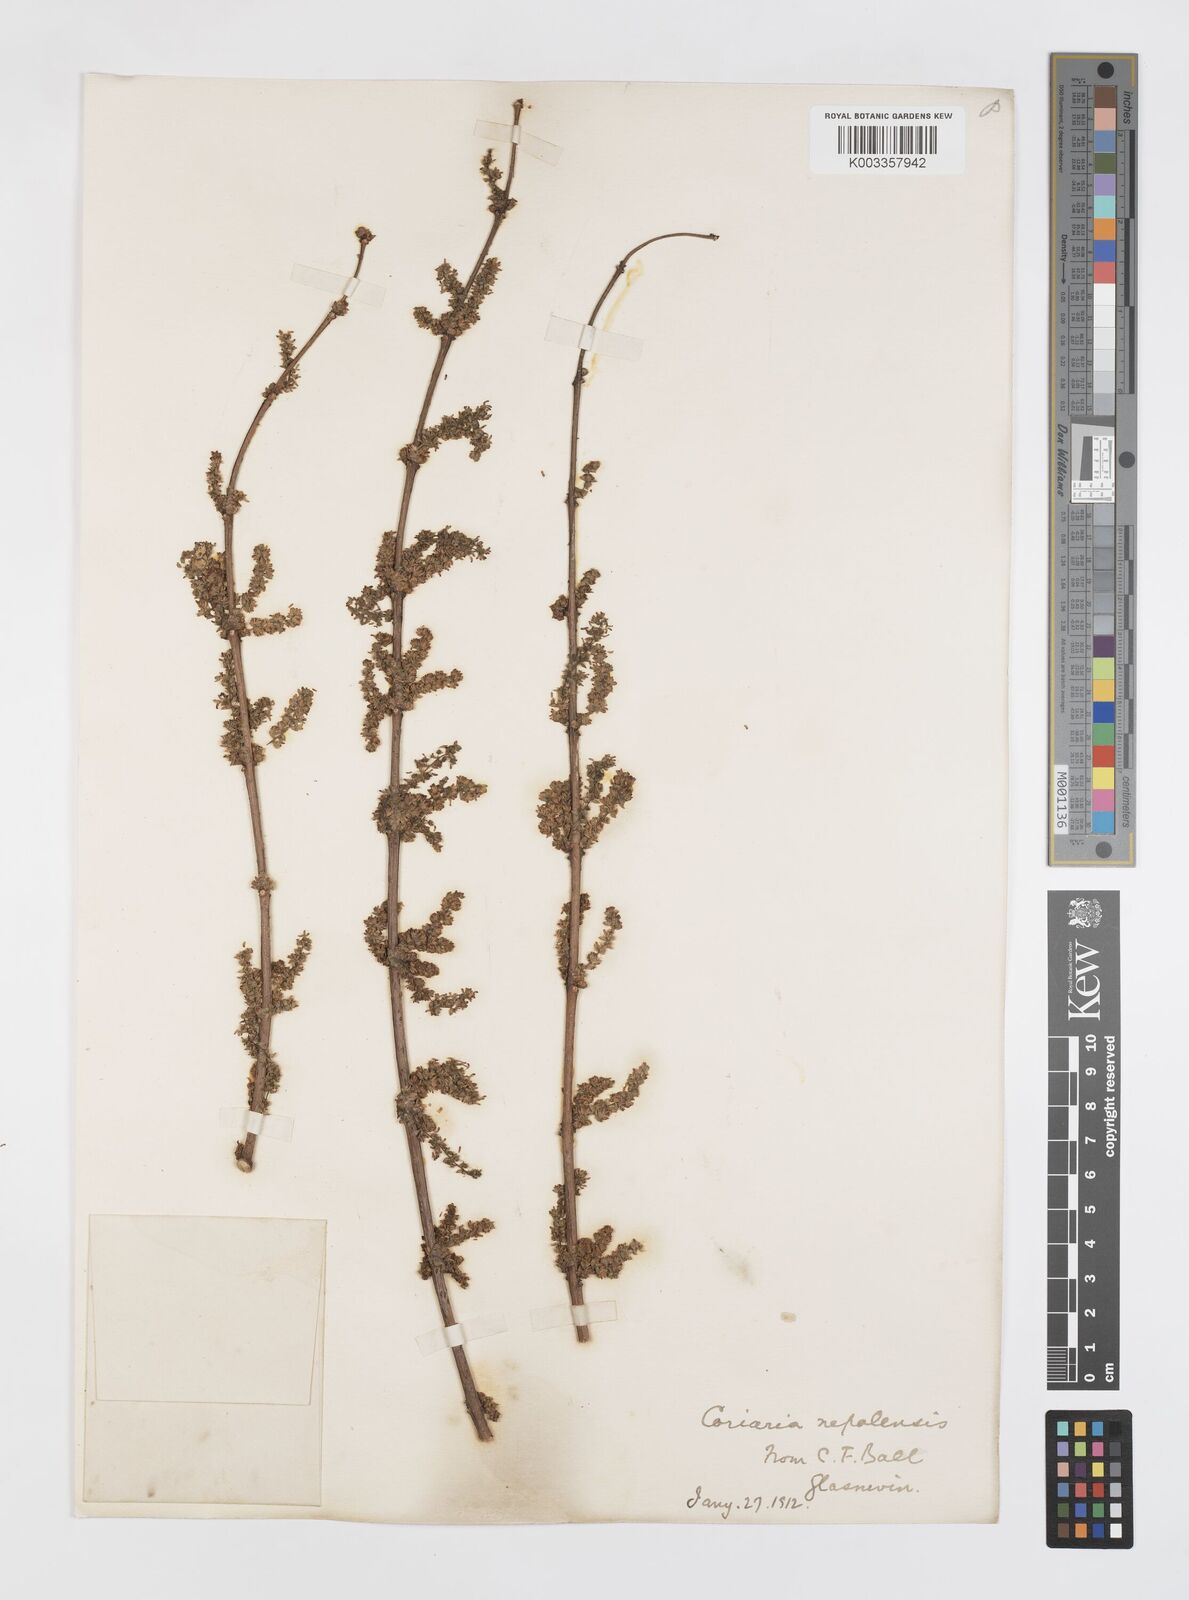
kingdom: Plantae
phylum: Tracheophyta
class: Magnoliopsida
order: Cucurbitales
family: Coriariaceae
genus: Coriaria
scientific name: Coriaria napalensis
